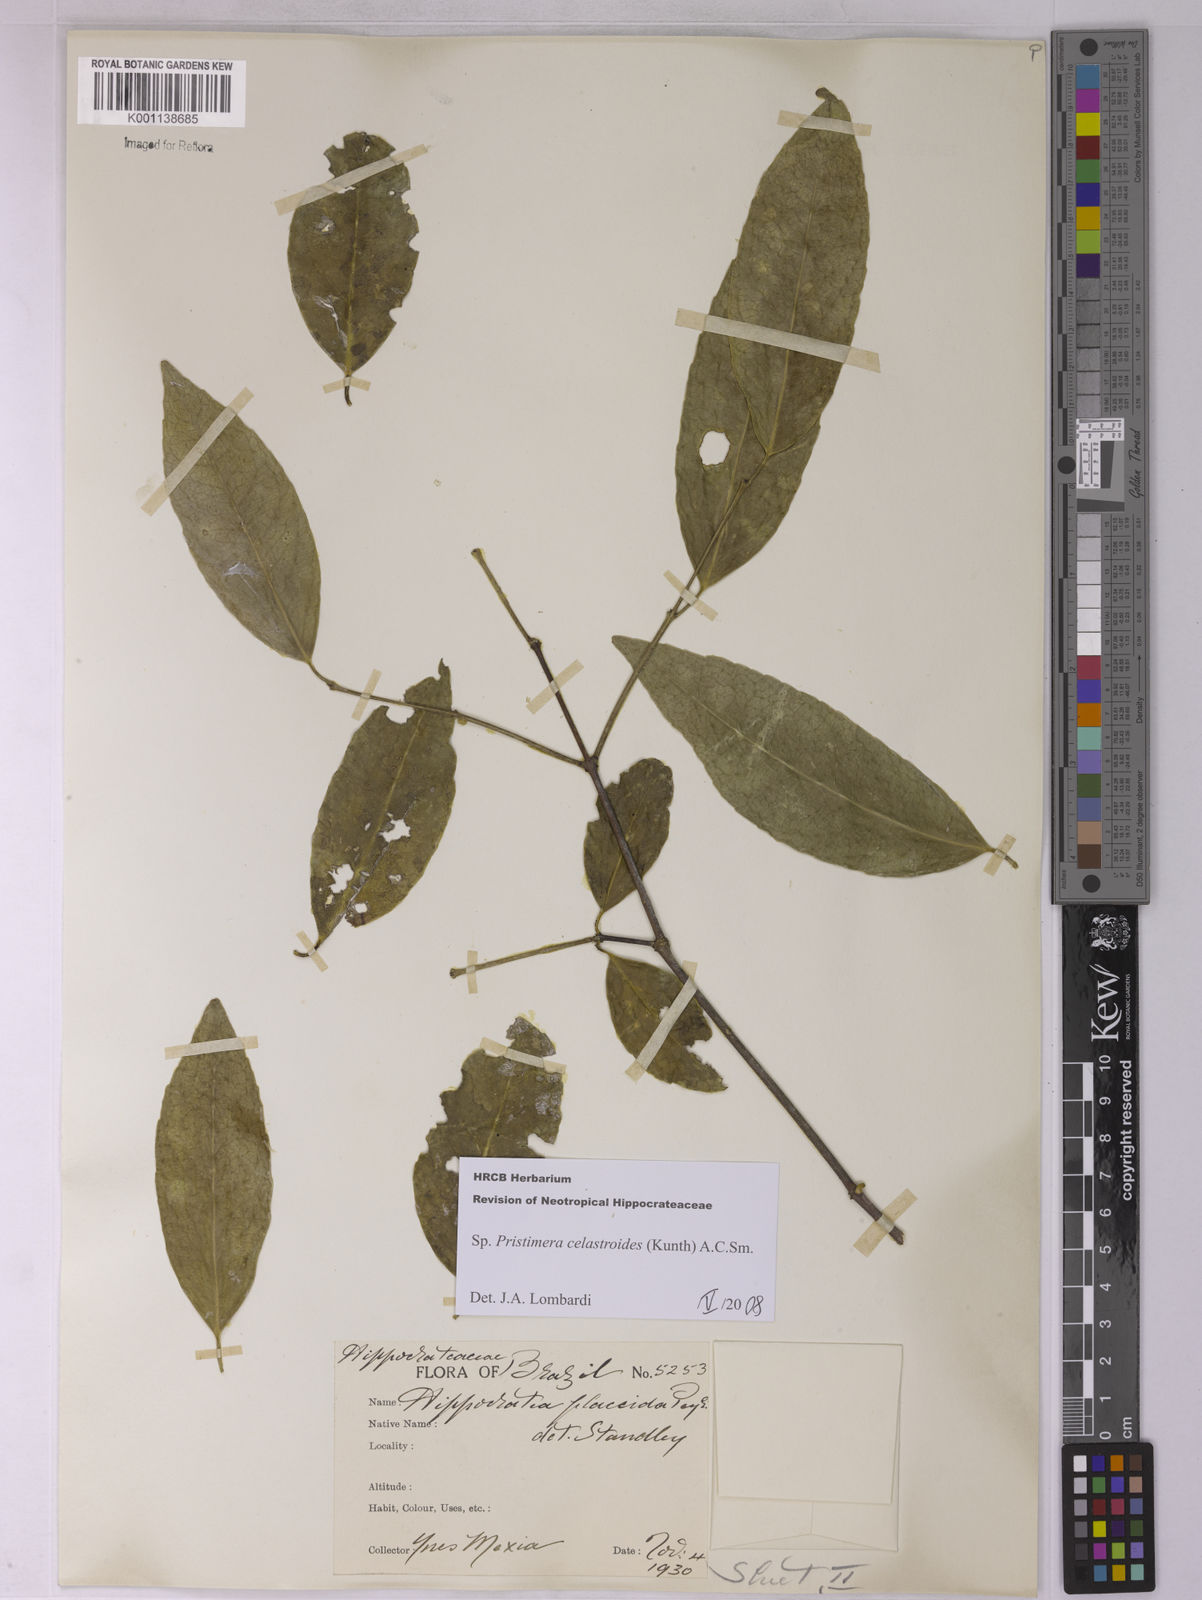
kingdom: Plantae
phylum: Tracheophyta
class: Magnoliopsida
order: Celastrales
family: Celastraceae
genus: Pristimera
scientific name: Pristimera celastroides
